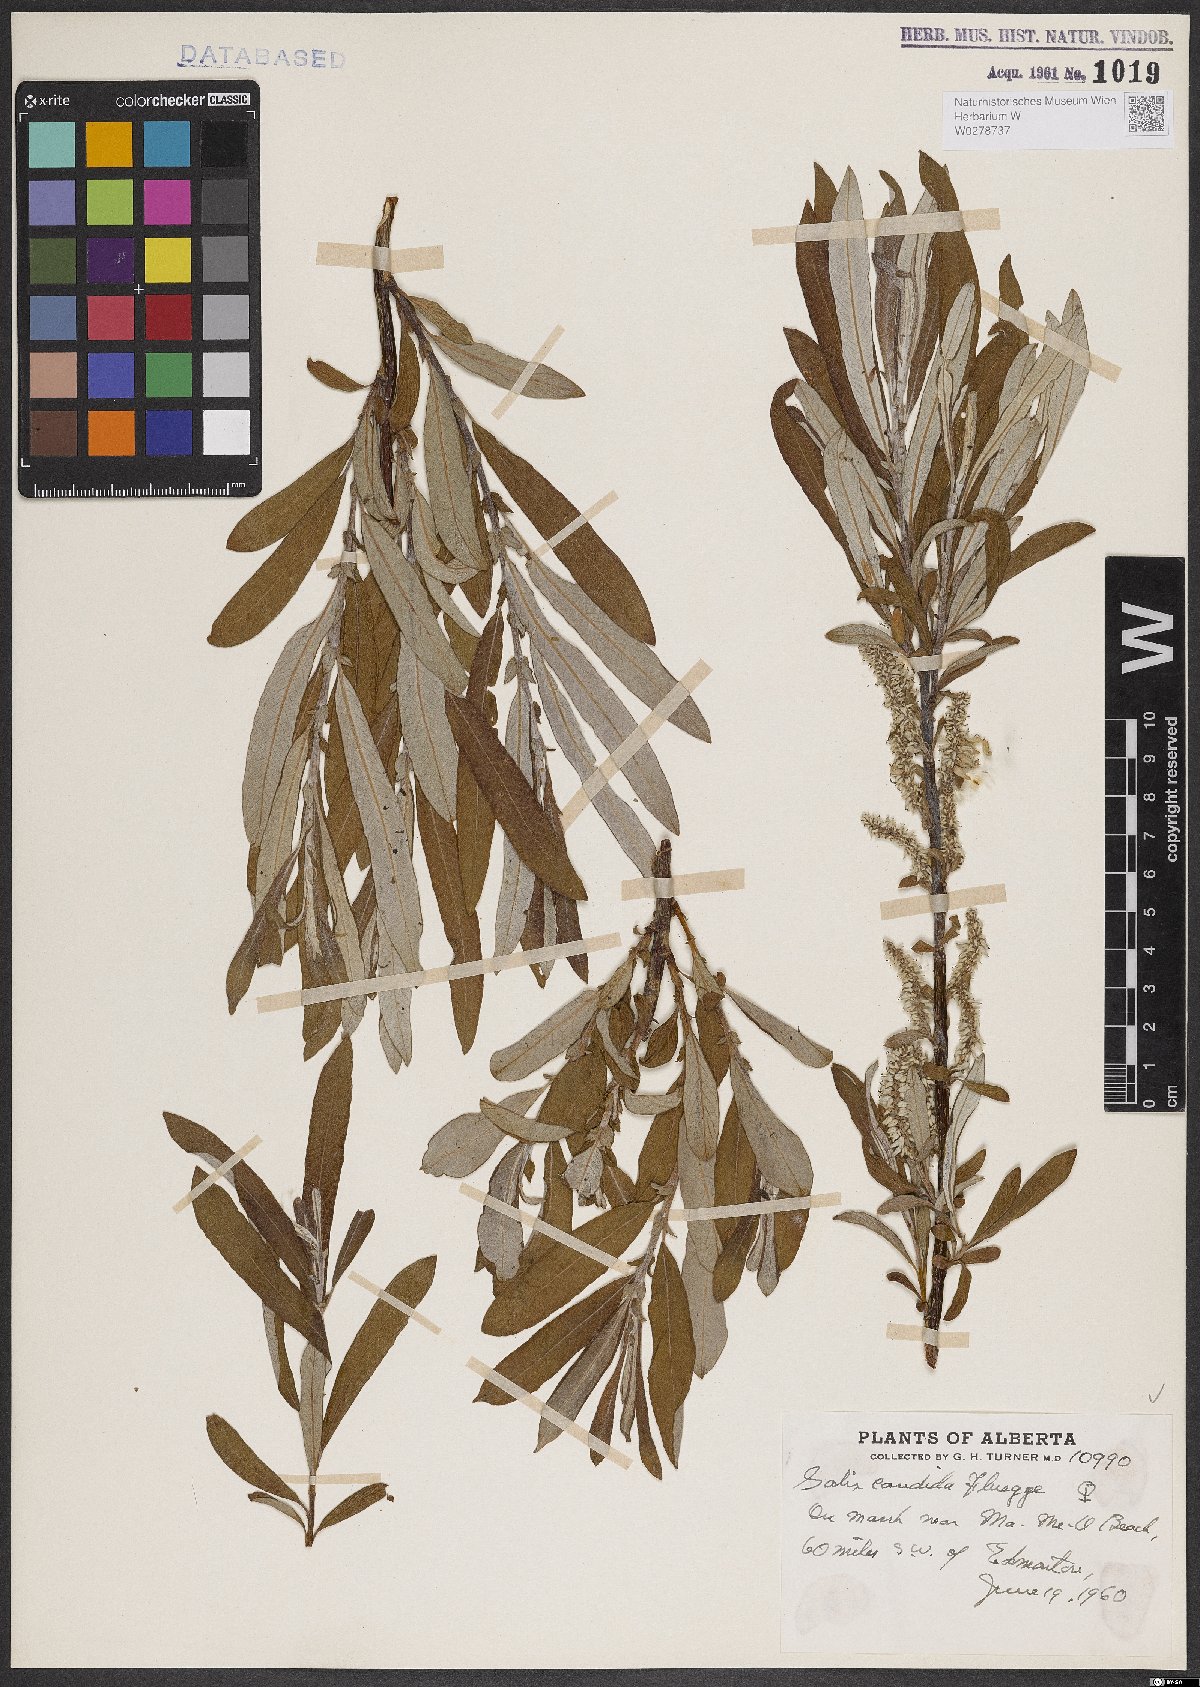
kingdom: Plantae
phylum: Tracheophyta
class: Magnoliopsida
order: Malpighiales
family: Salicaceae
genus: Salix
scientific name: Salix candida
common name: Hoary willow
